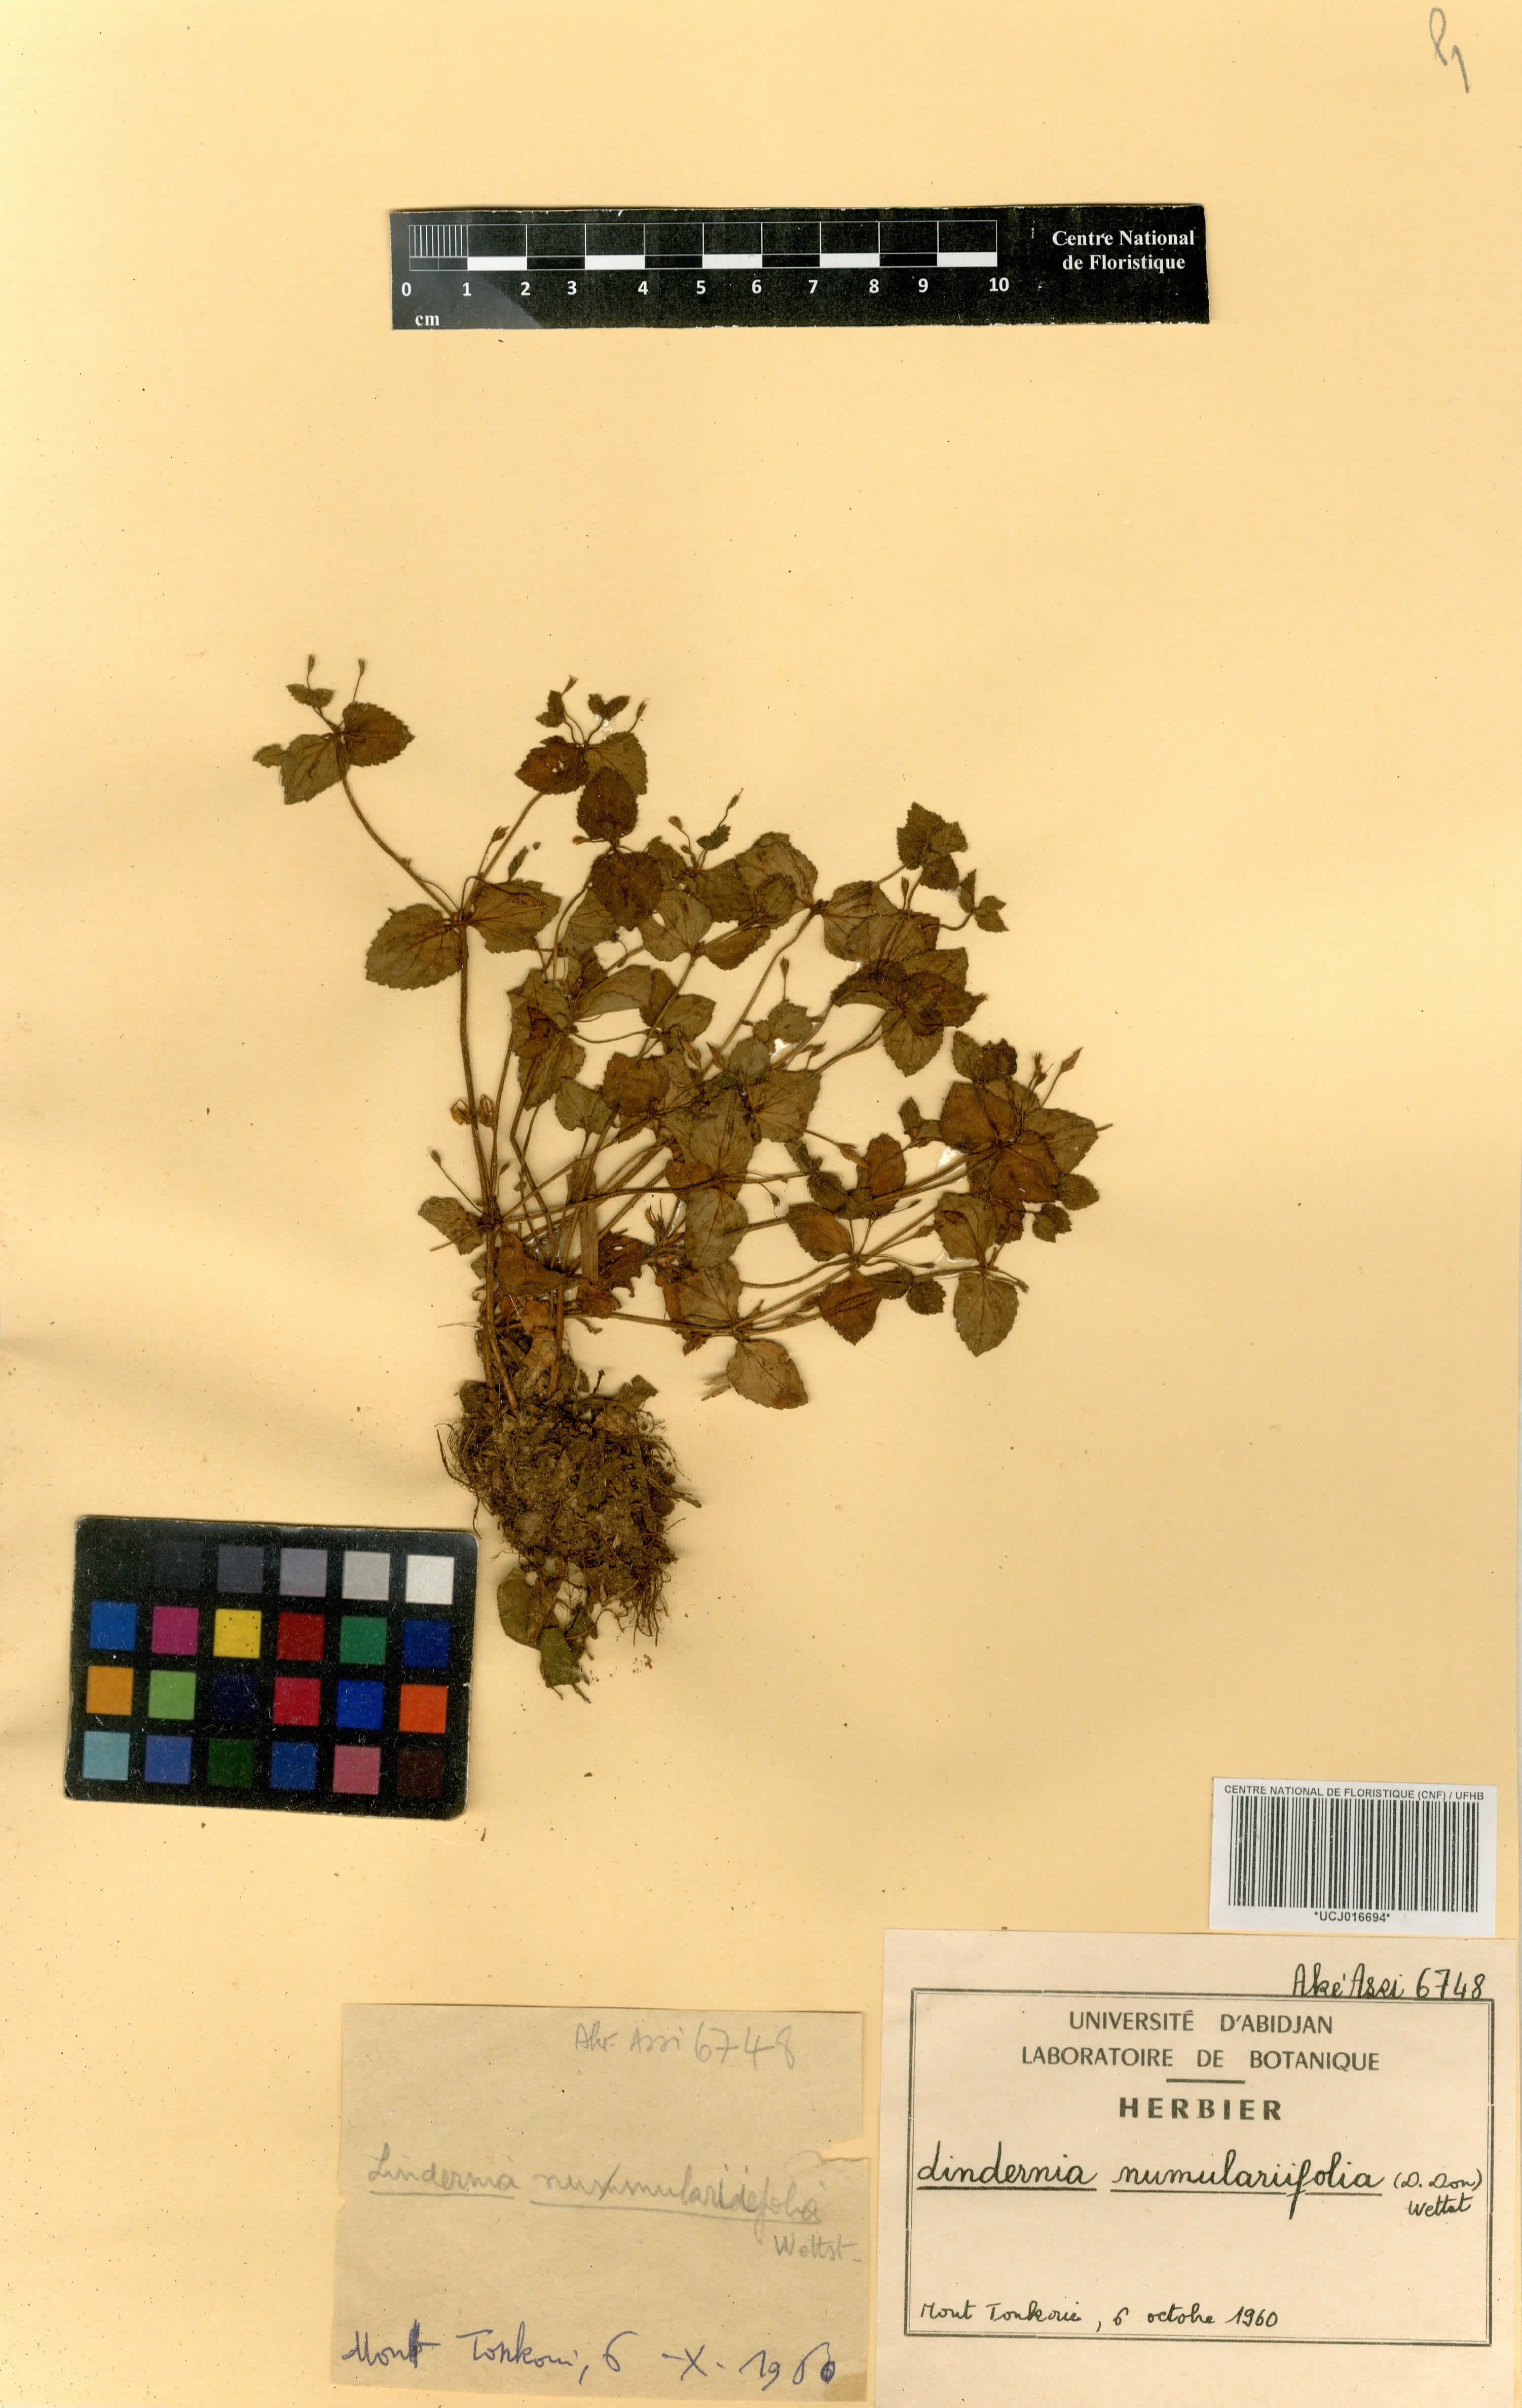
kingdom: Plantae
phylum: Tracheophyta
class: Magnoliopsida
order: Lamiales
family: Linderniaceae
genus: Craterostigma
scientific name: Craterostigma nummulariifolium
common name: False pimpernel
